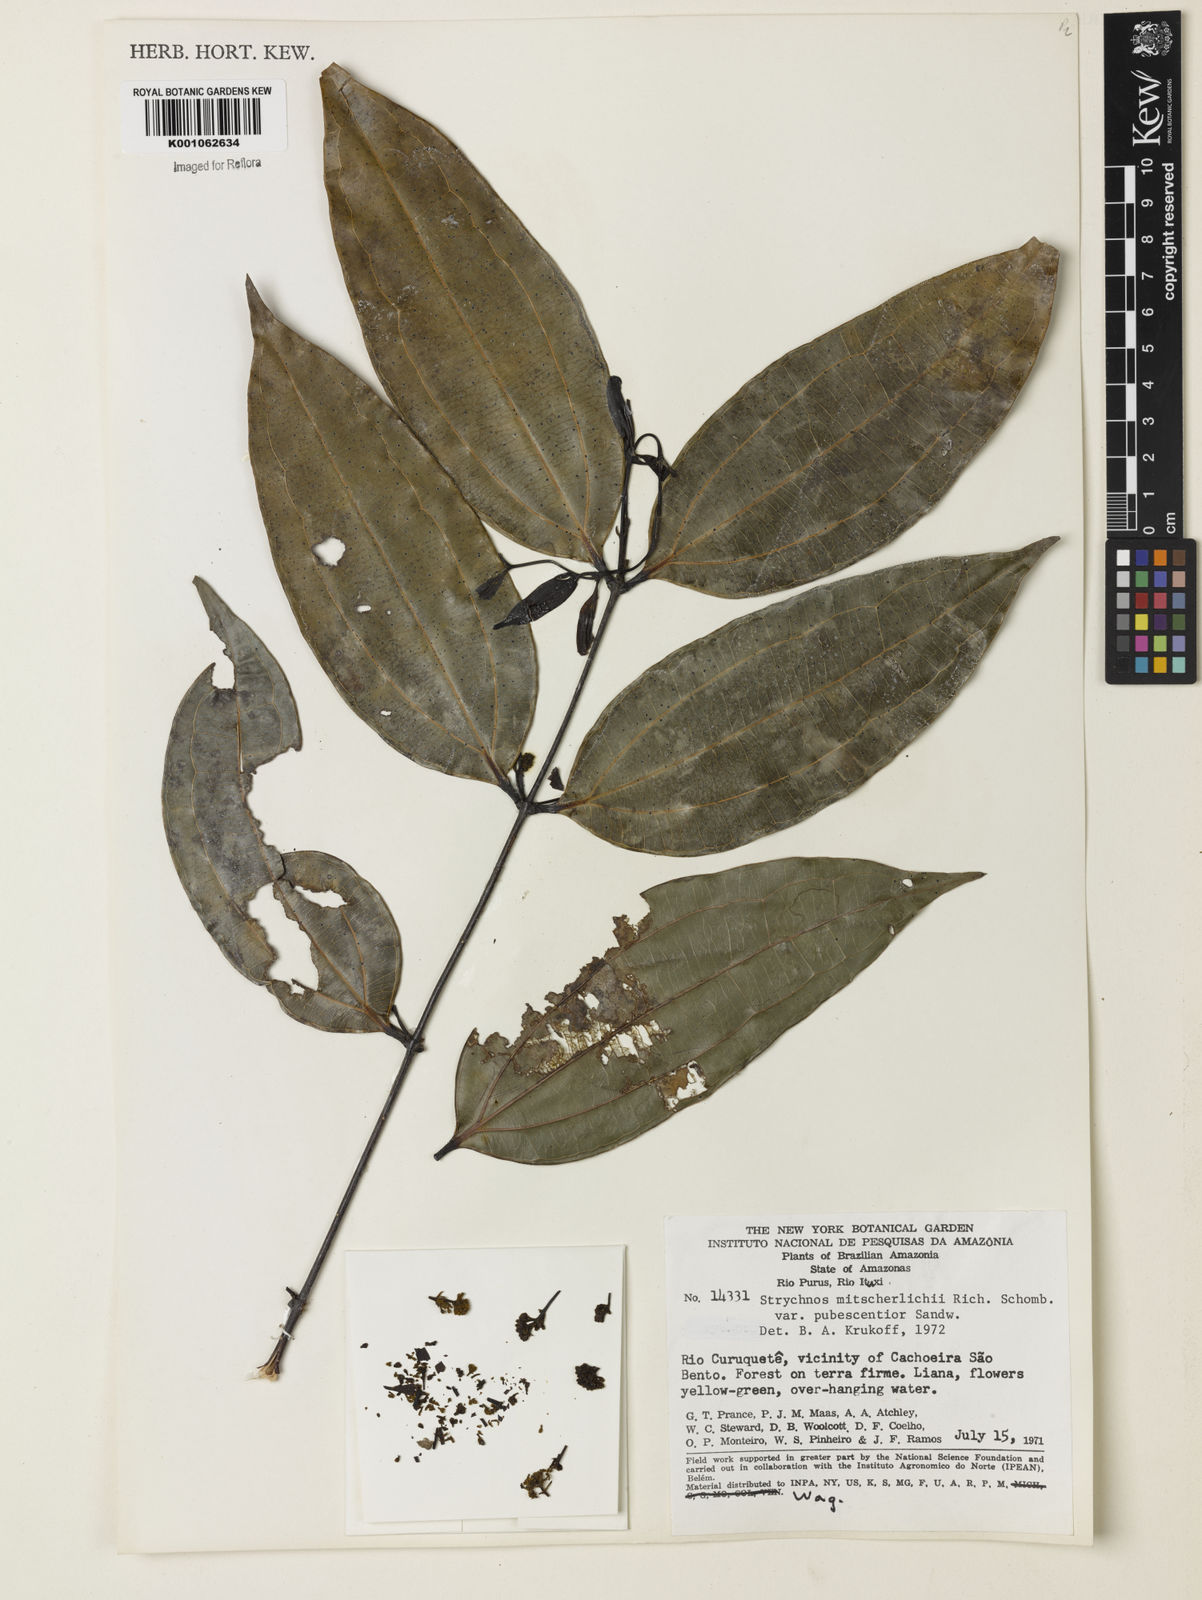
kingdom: Plantae
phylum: Tracheophyta
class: Magnoliopsida
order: Gentianales
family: Loganiaceae
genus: Strychnos
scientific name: Strychnos mitscherlichii
